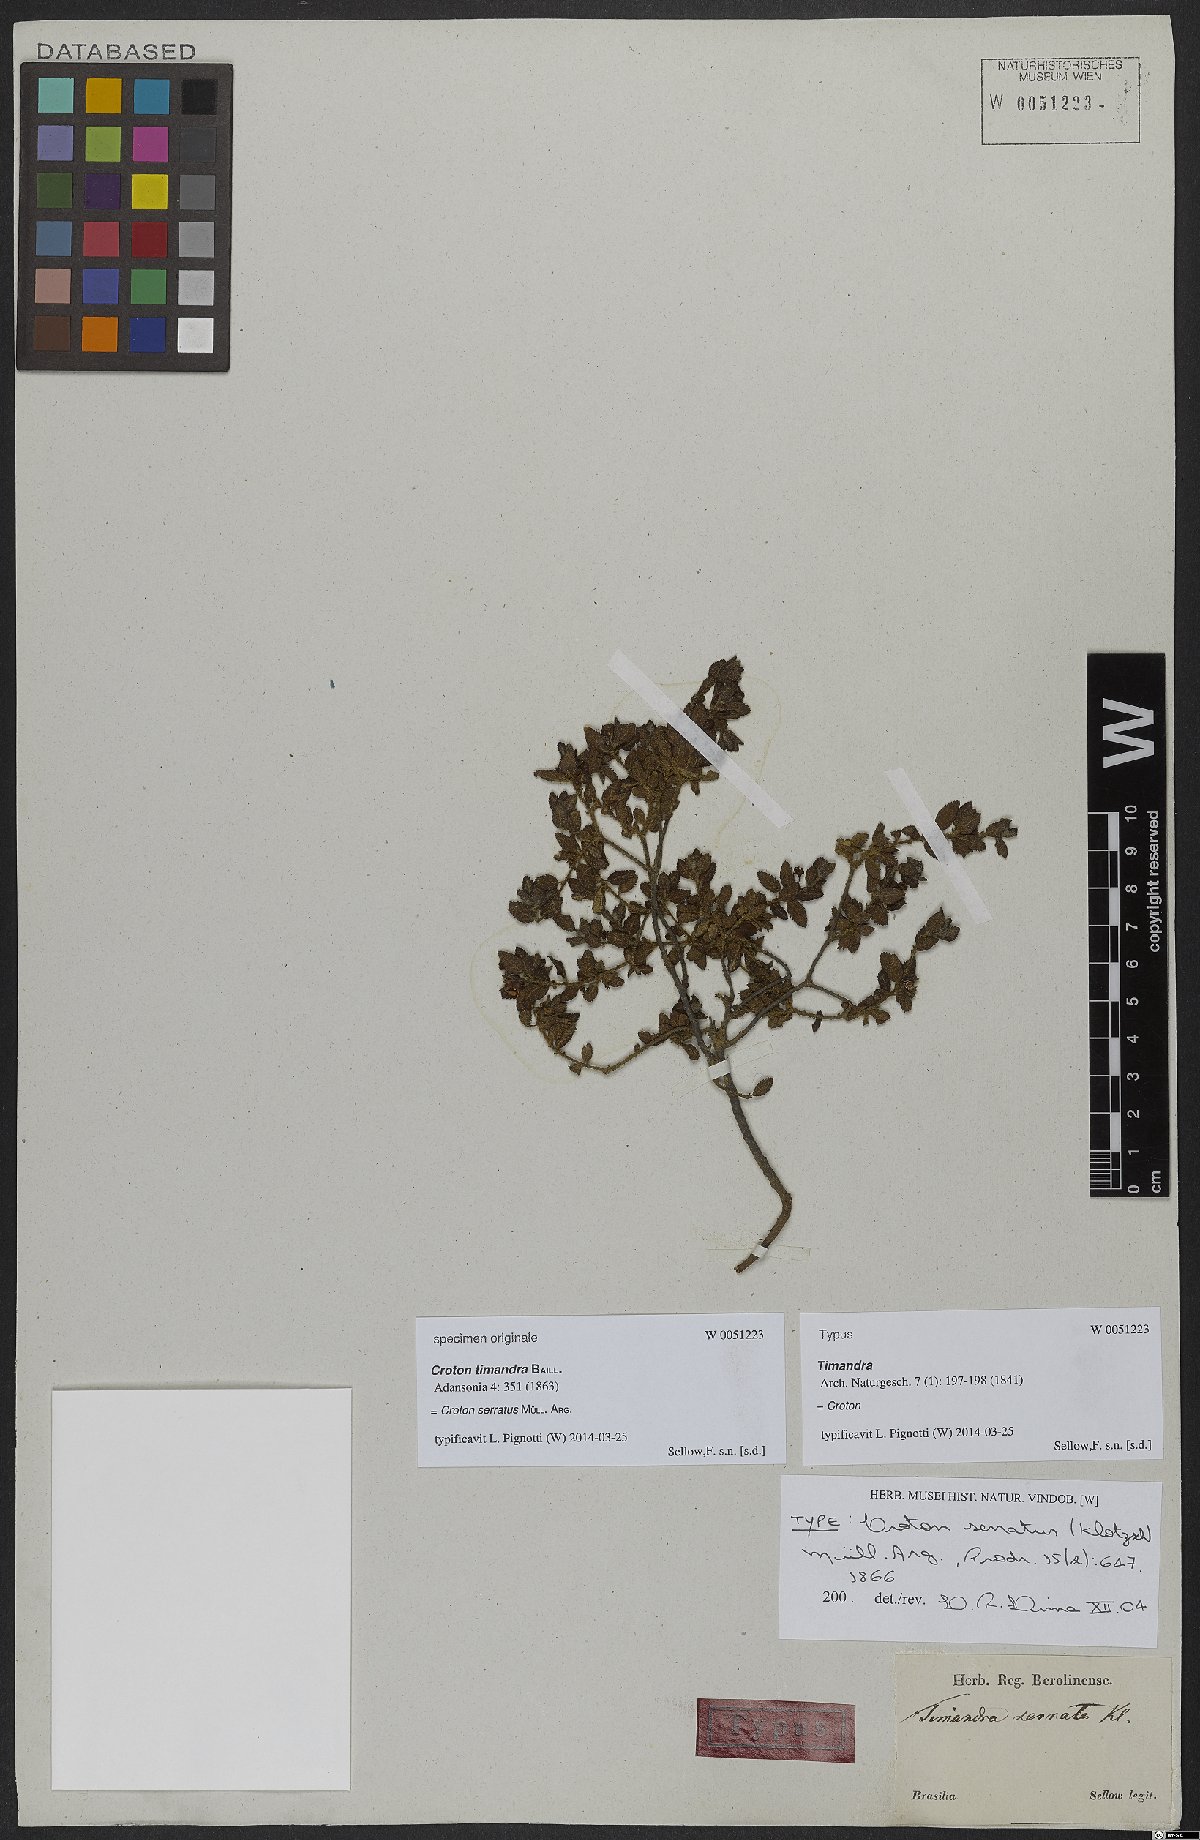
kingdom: Plantae
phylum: Tracheophyta
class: Magnoliopsida
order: Malpighiales
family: Euphorbiaceae
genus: Croton
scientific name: Croton serratus
